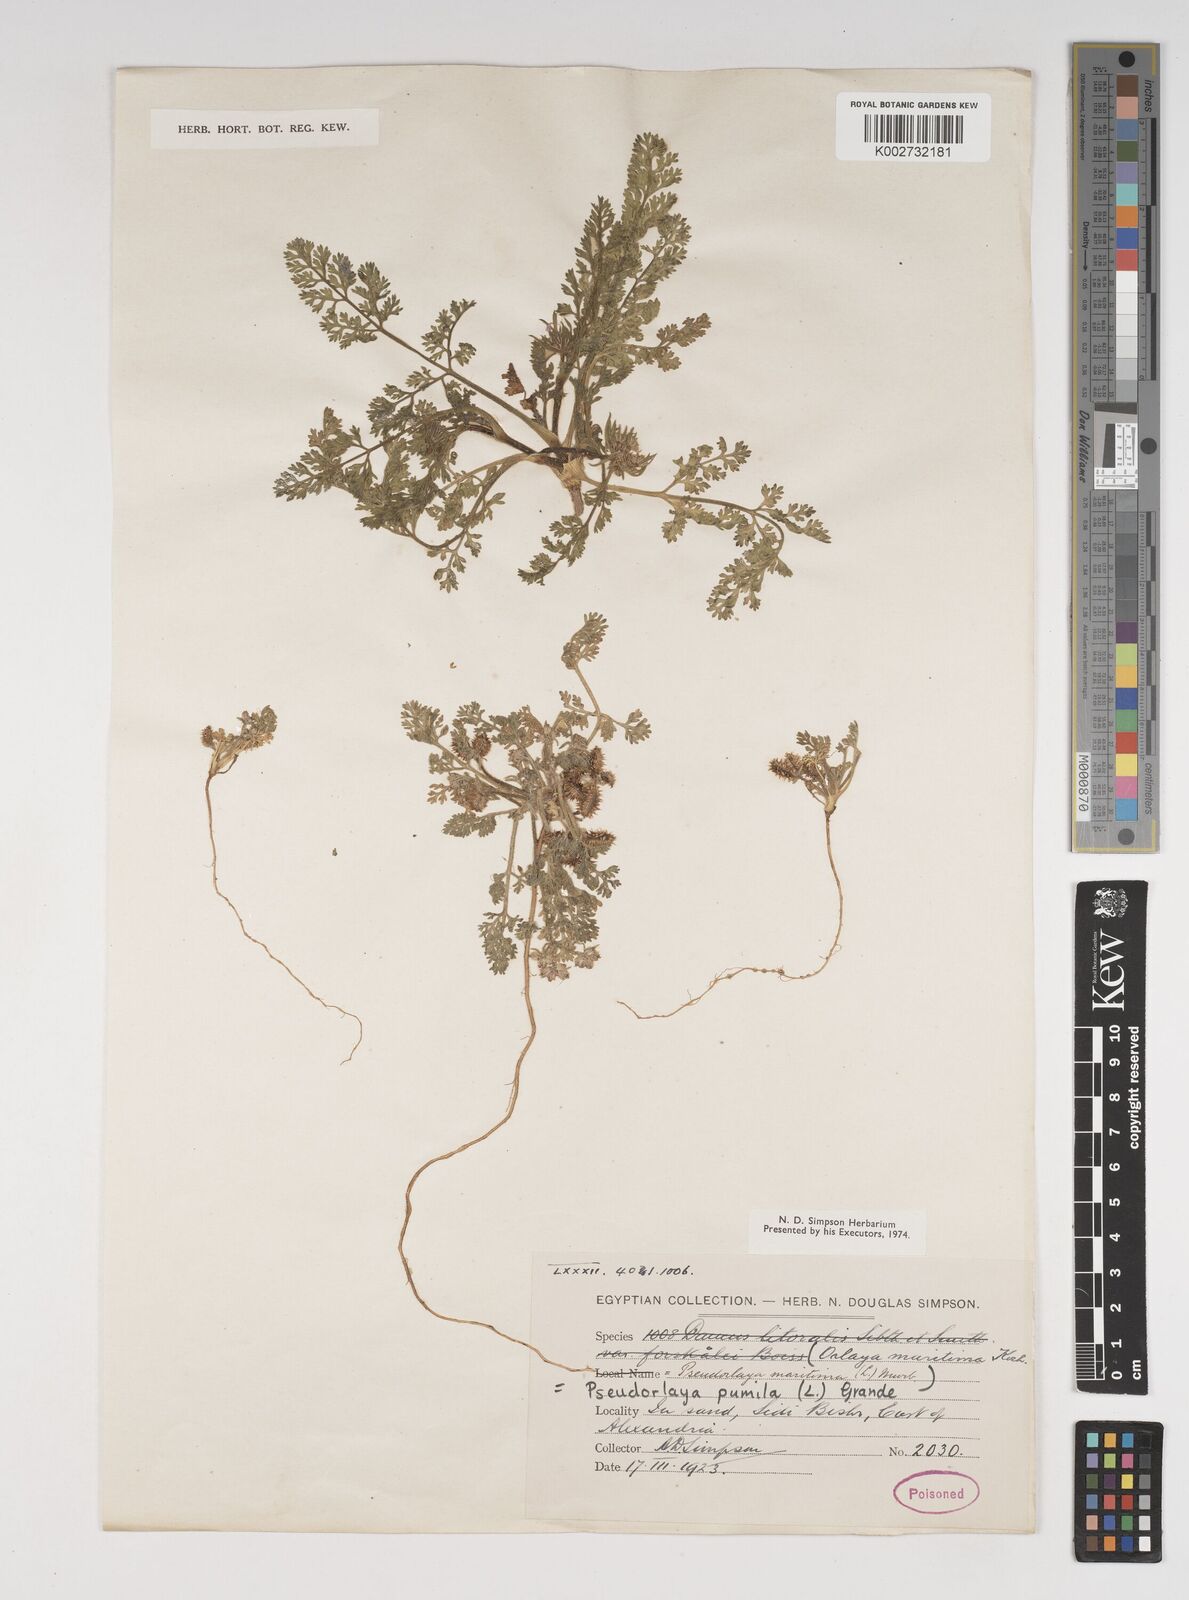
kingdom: Plantae
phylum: Tracheophyta
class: Magnoliopsida
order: Apiales
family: Apiaceae
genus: Daucus
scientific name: Daucus pumilus
